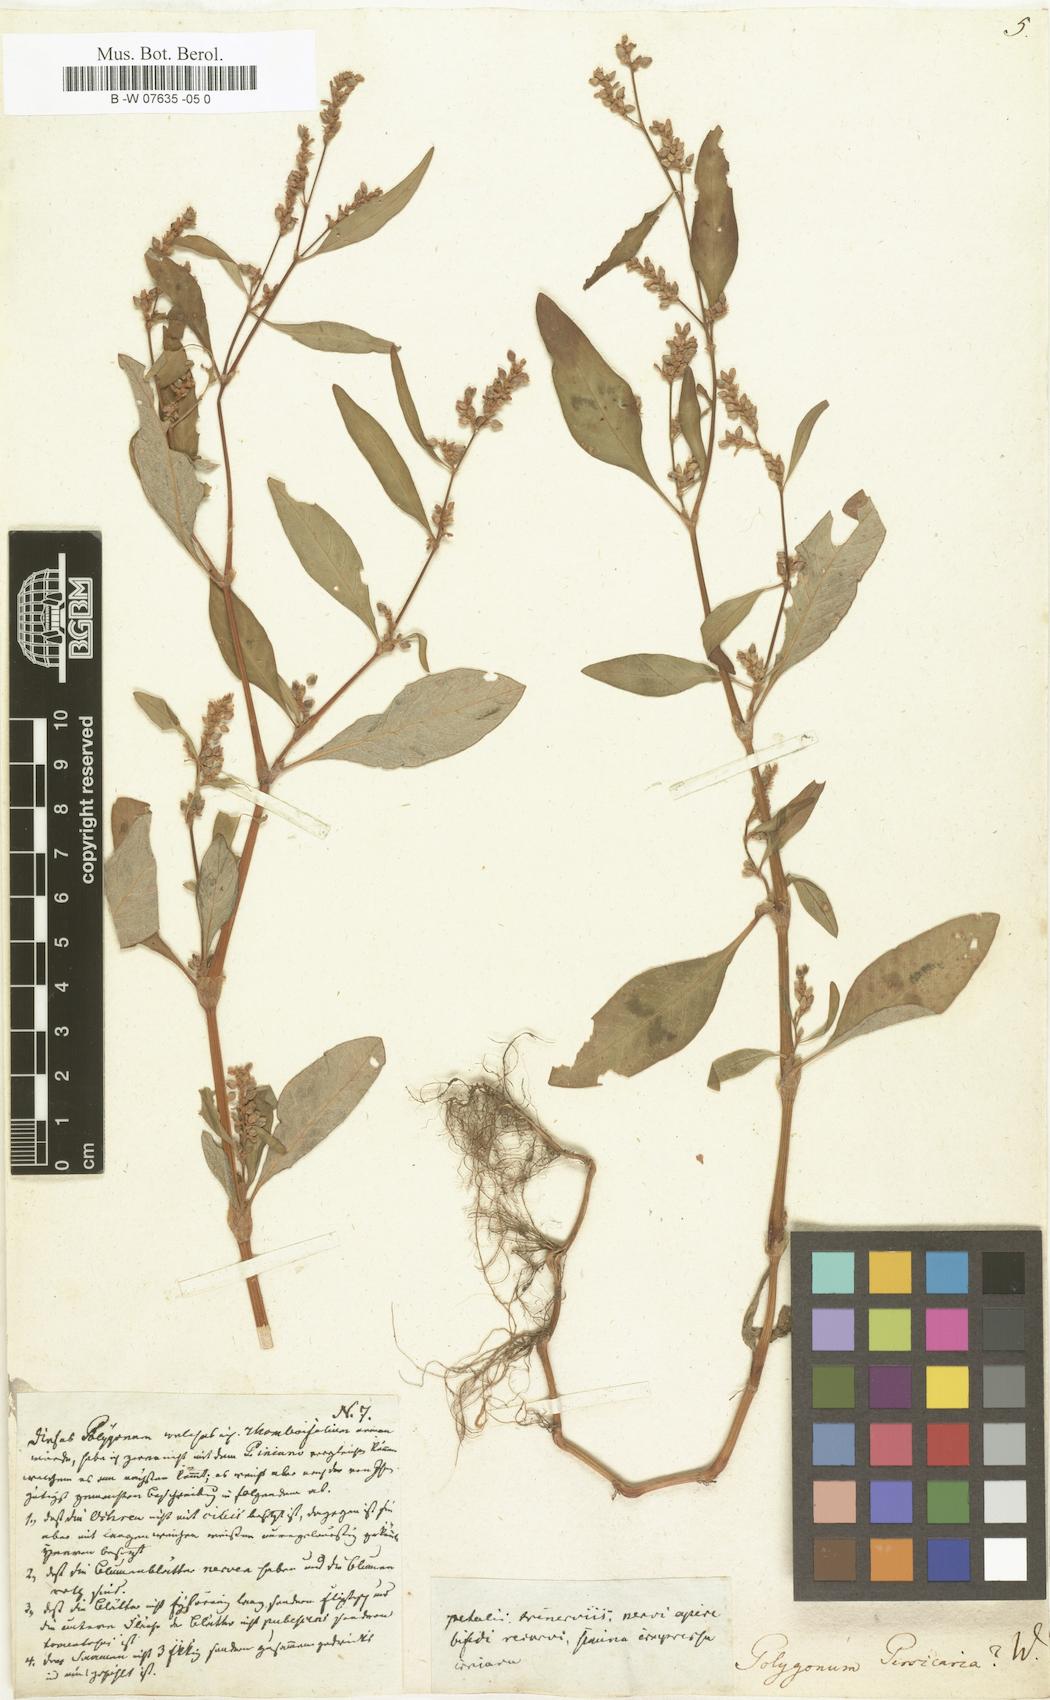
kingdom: Plantae
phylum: Tracheophyta
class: Magnoliopsida
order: Caryophyllales
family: Polygonaceae
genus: Polygonum
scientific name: Polygonum persicaria
